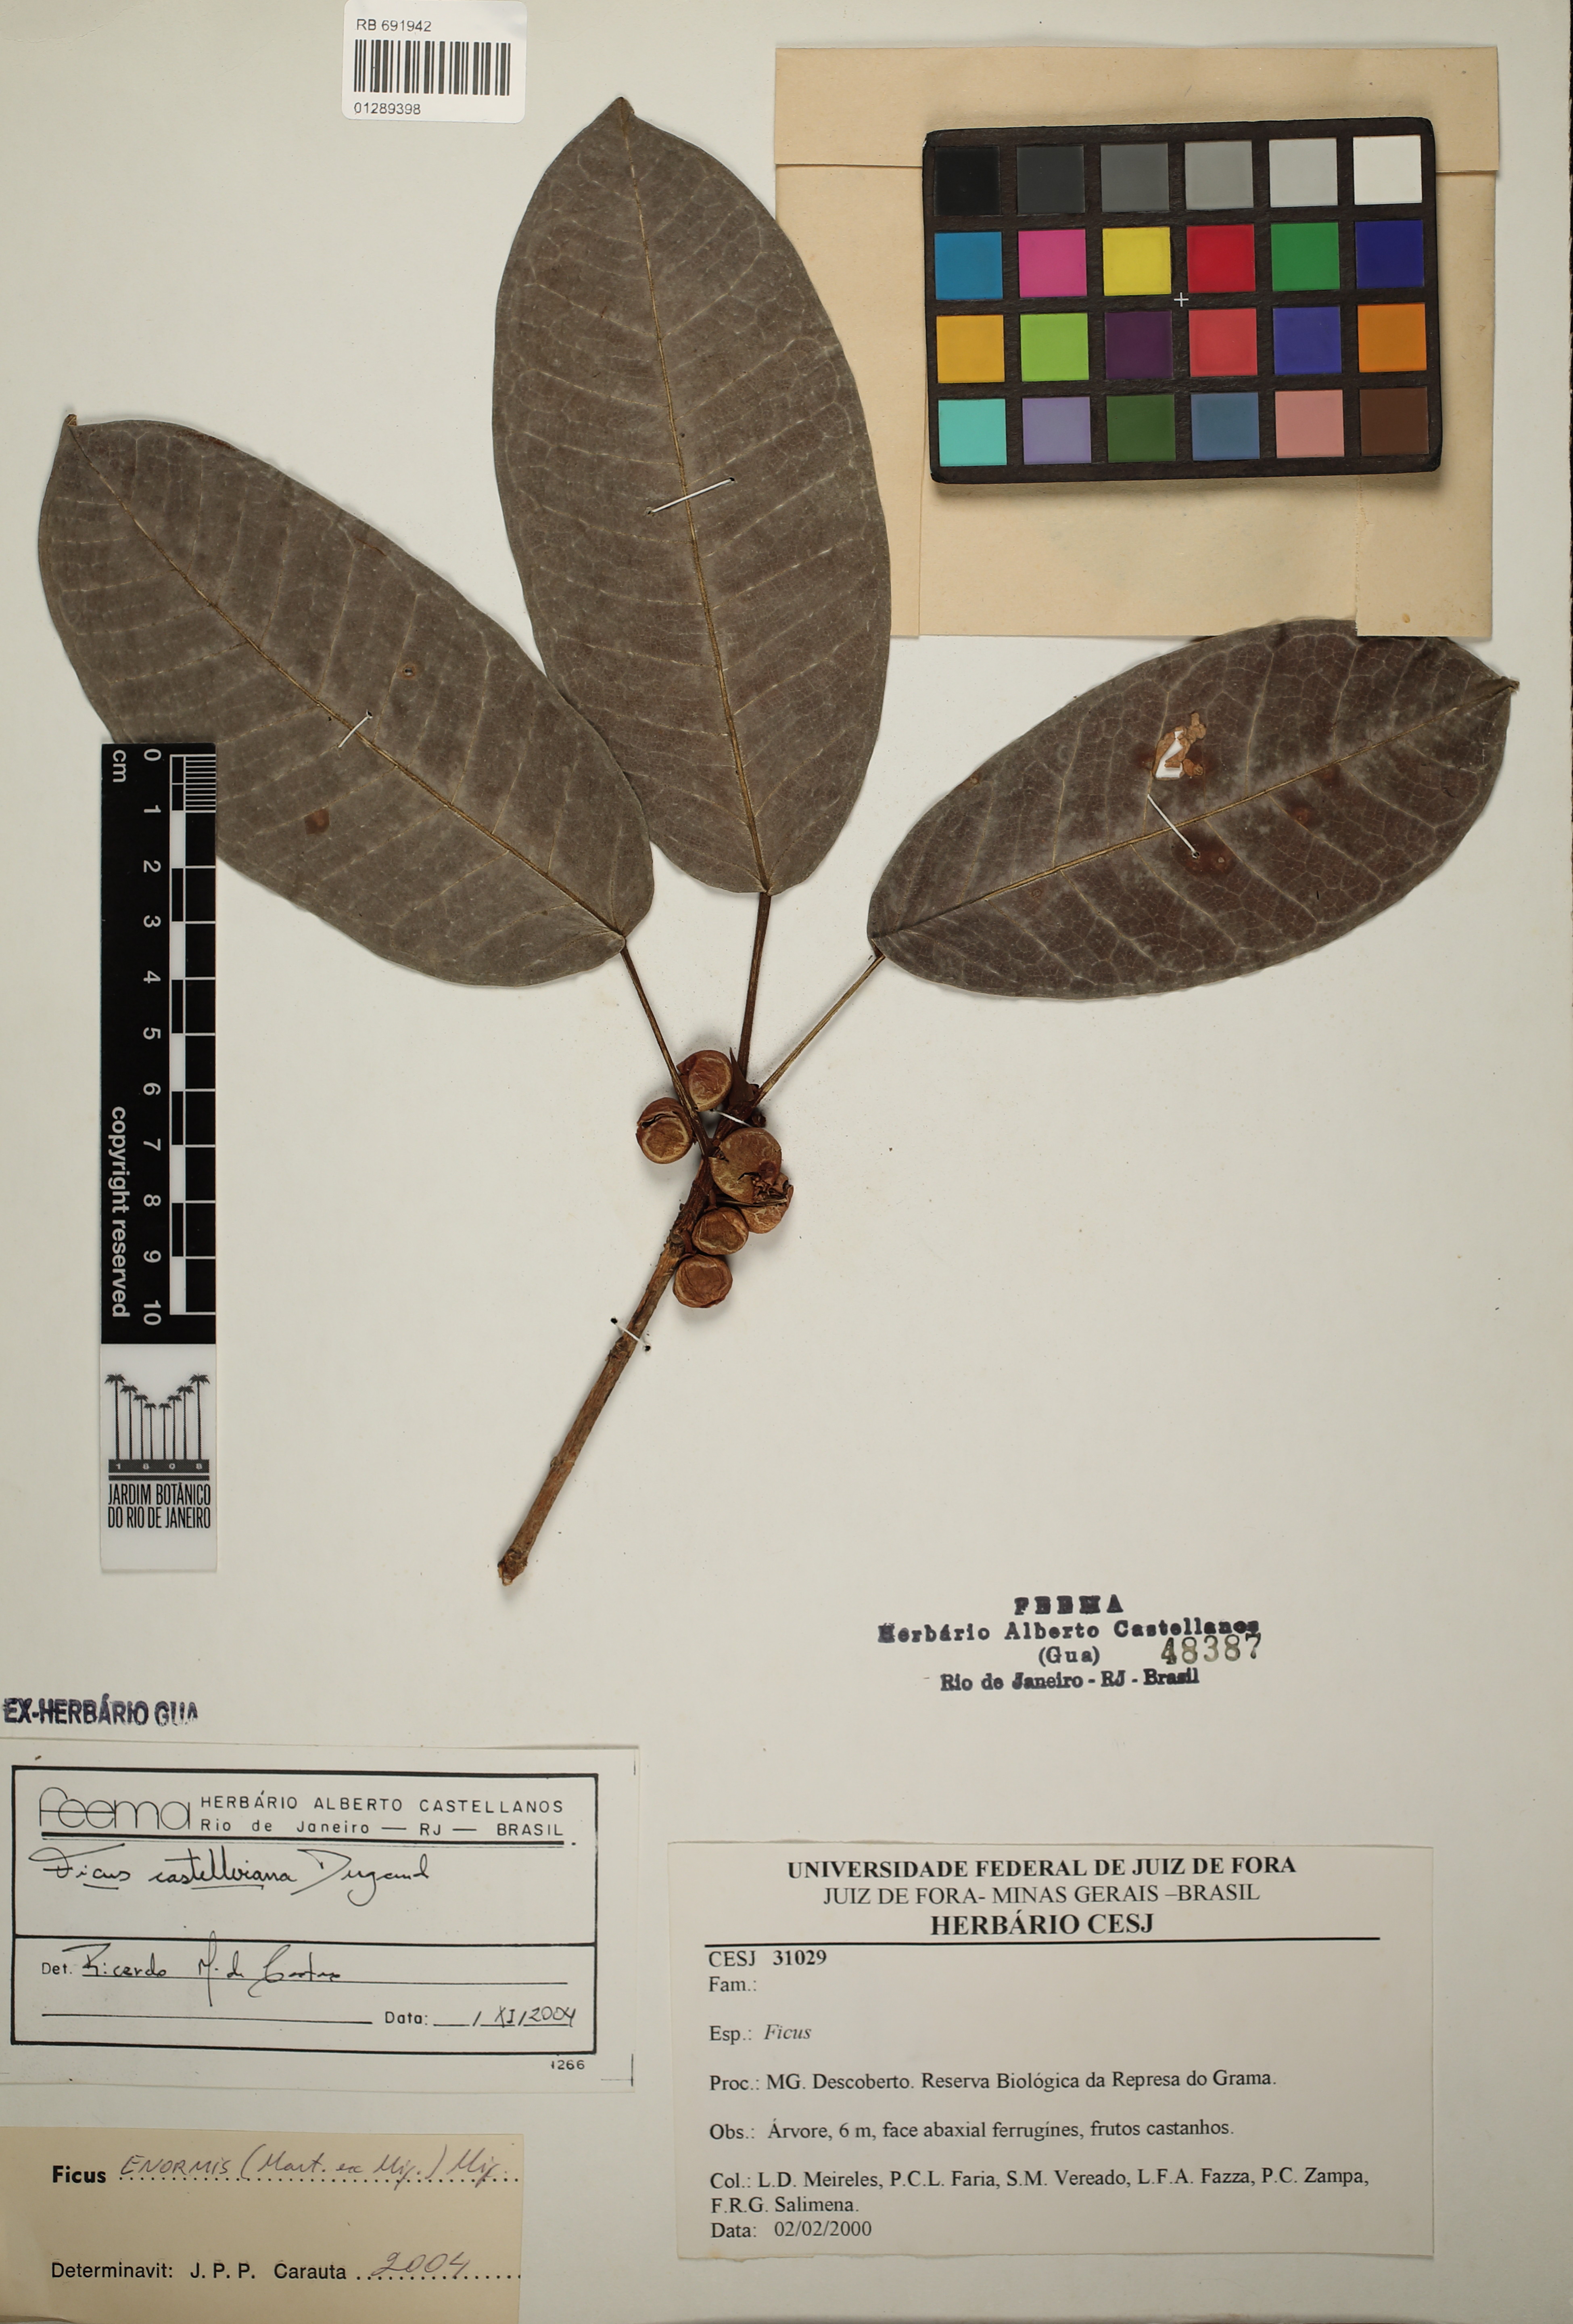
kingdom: Plantae
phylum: Tracheophyta
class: Magnoliopsida
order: Rosales
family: Moraceae
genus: Ficus
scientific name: Ficus castellviana
